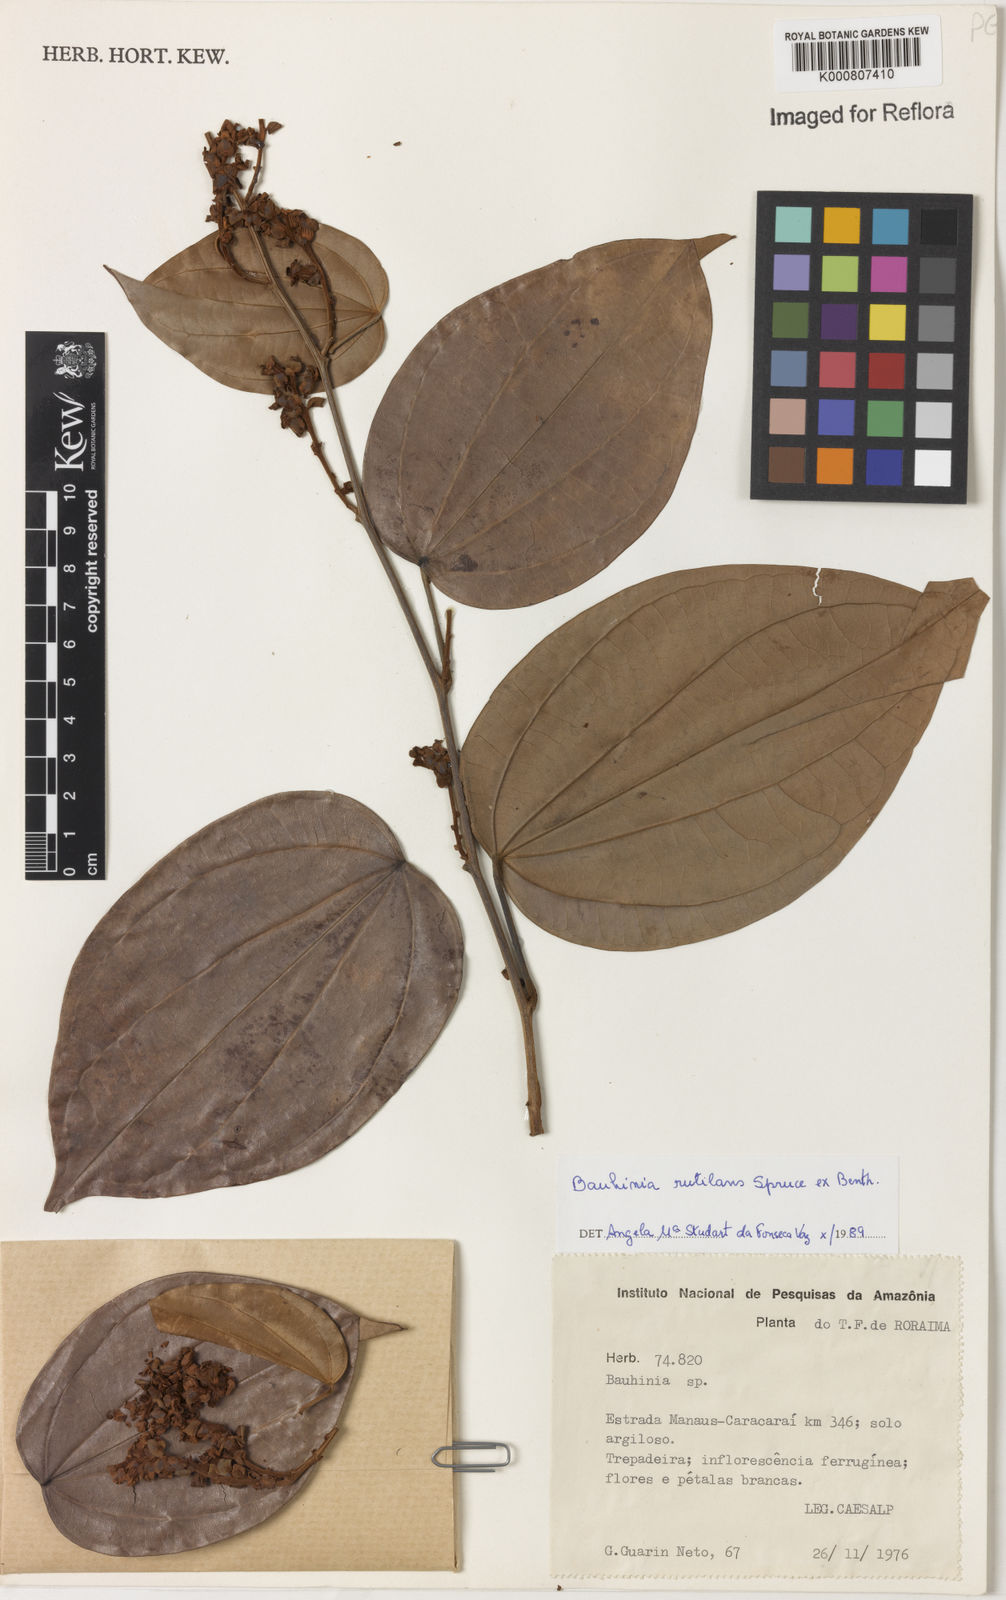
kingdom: Plantae
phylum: Tracheophyta
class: Magnoliopsida
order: Fabales
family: Fabaceae
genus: Schnella
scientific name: Schnella rutilans
